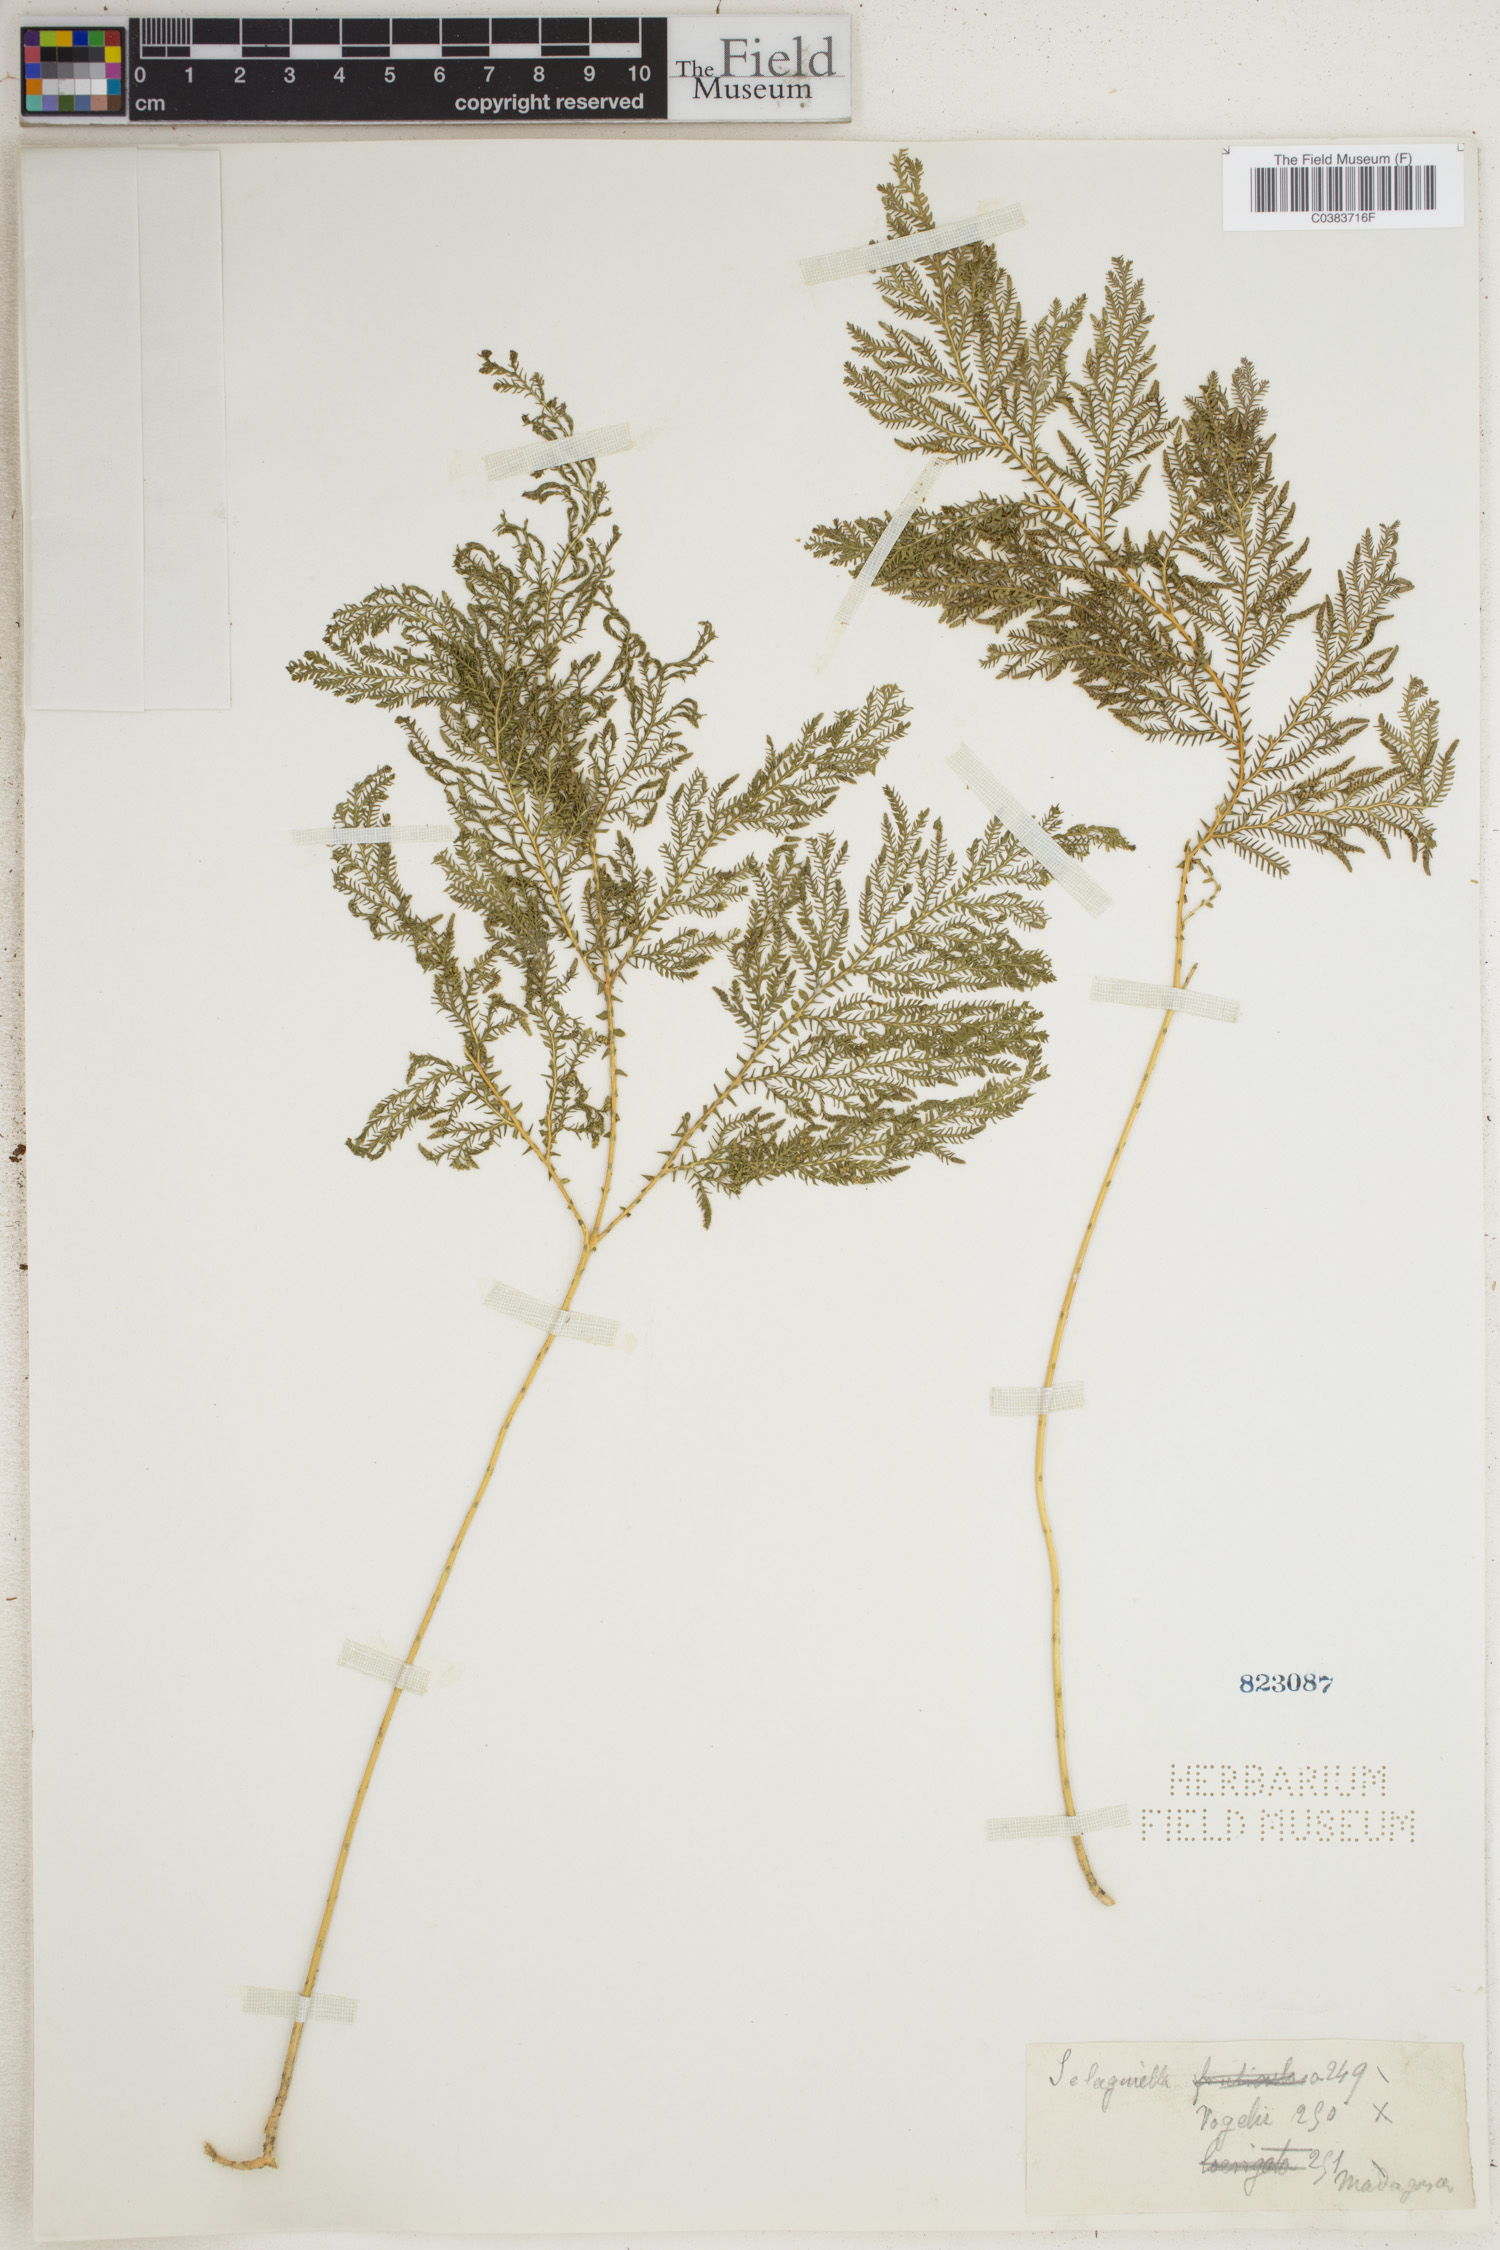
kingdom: Plantae
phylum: Tracheophyta
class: Lycopodiopsida
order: Selaginellales
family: Selaginellaceae
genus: Selaginella
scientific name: Selaginella vogelii
